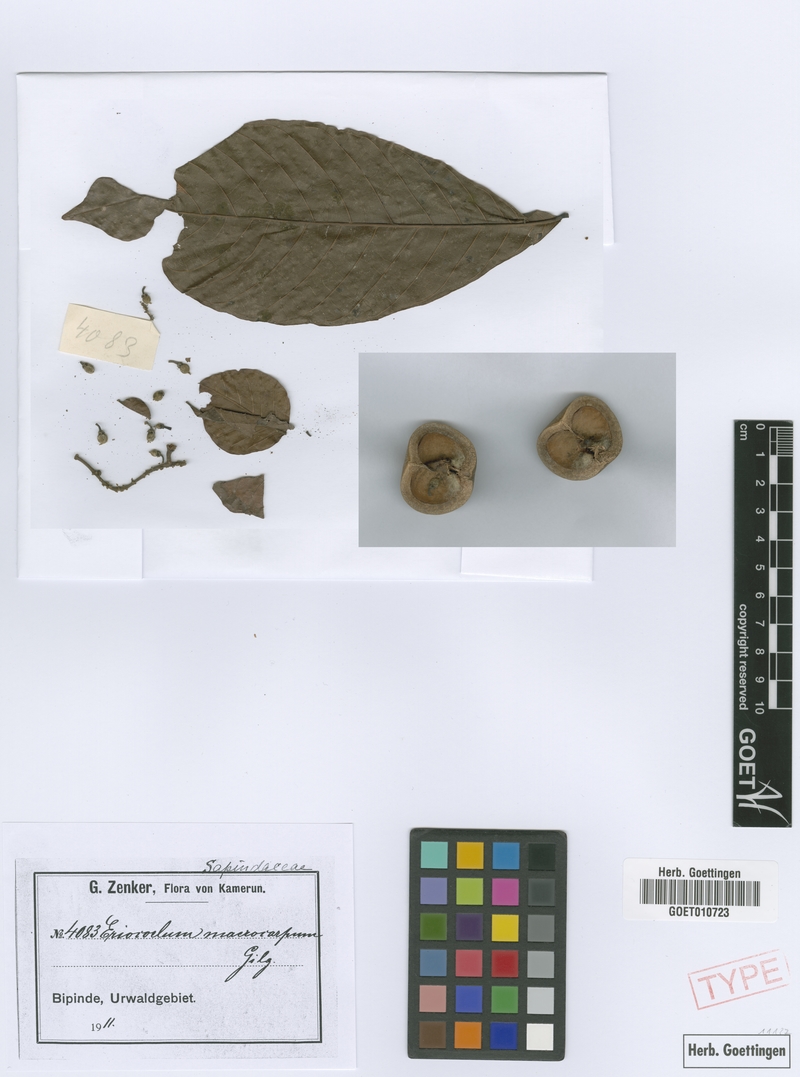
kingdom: Plantae
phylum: Tracheophyta
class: Magnoliopsida
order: Sapindales
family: Sapindaceae
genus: Eriocoelum
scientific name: Eriocoelum macrocarpum
